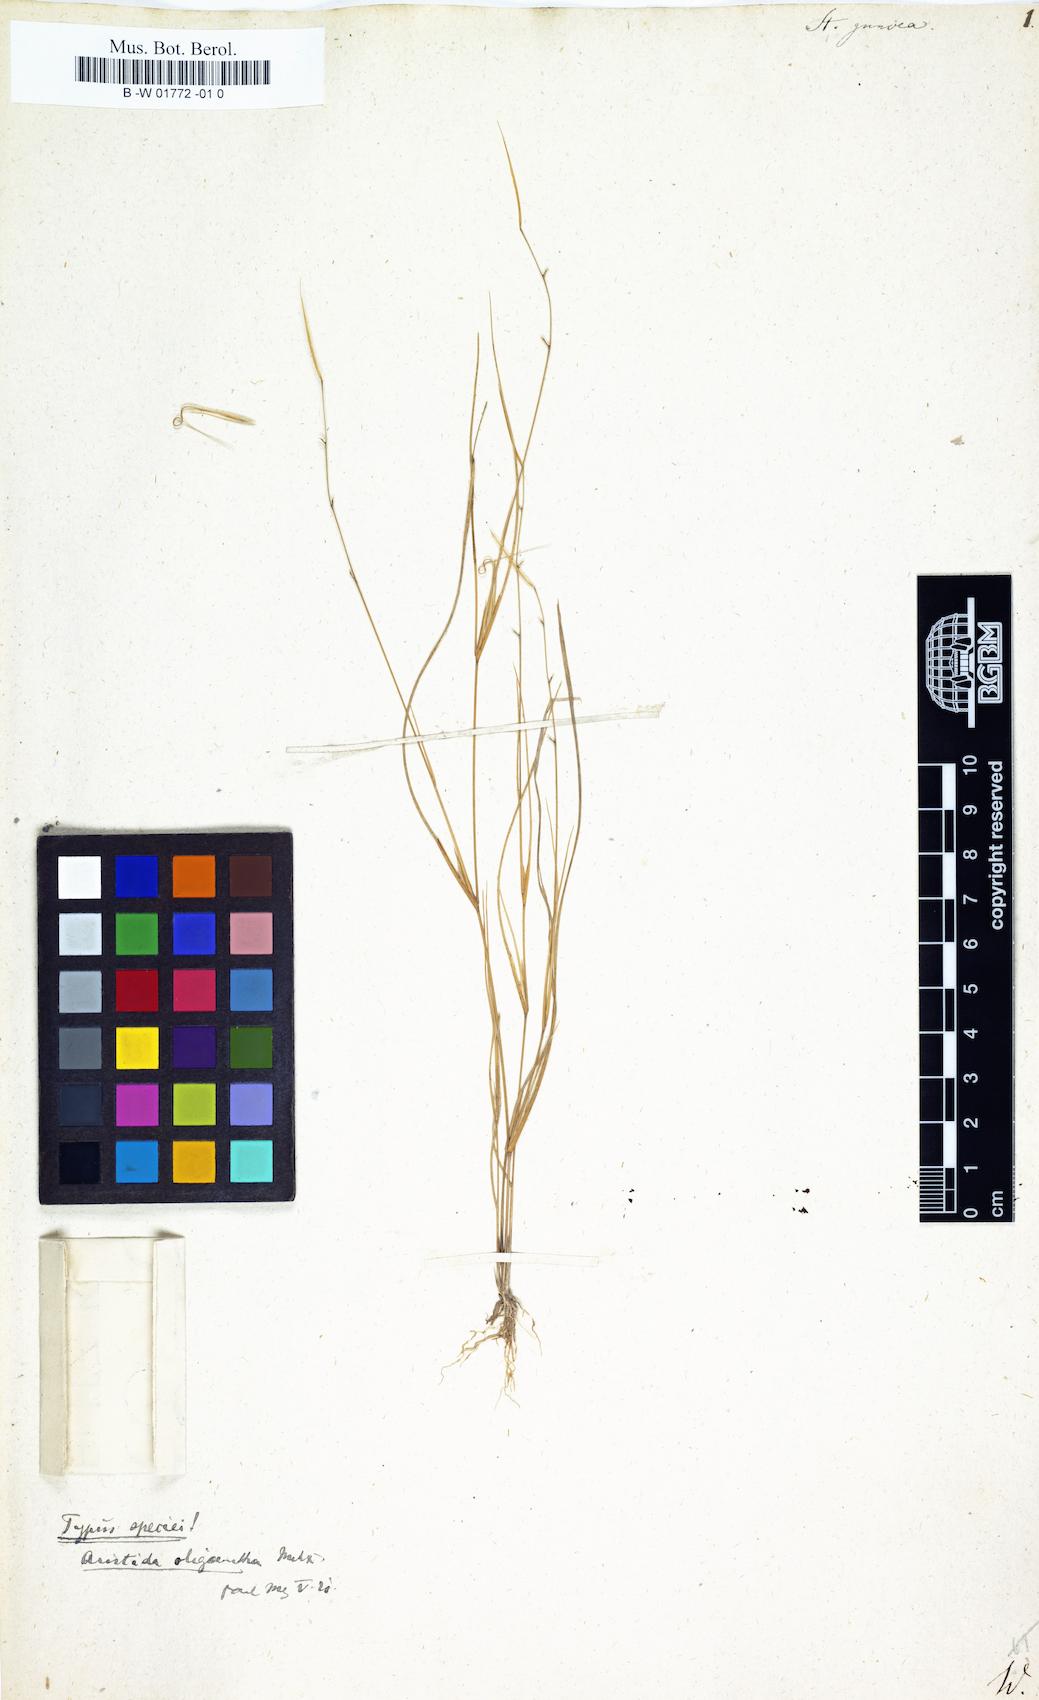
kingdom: Plantae
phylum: Tracheophyta
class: Liliopsida
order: Poales
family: Poaceae
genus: Stipa
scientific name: Stipa juncea
